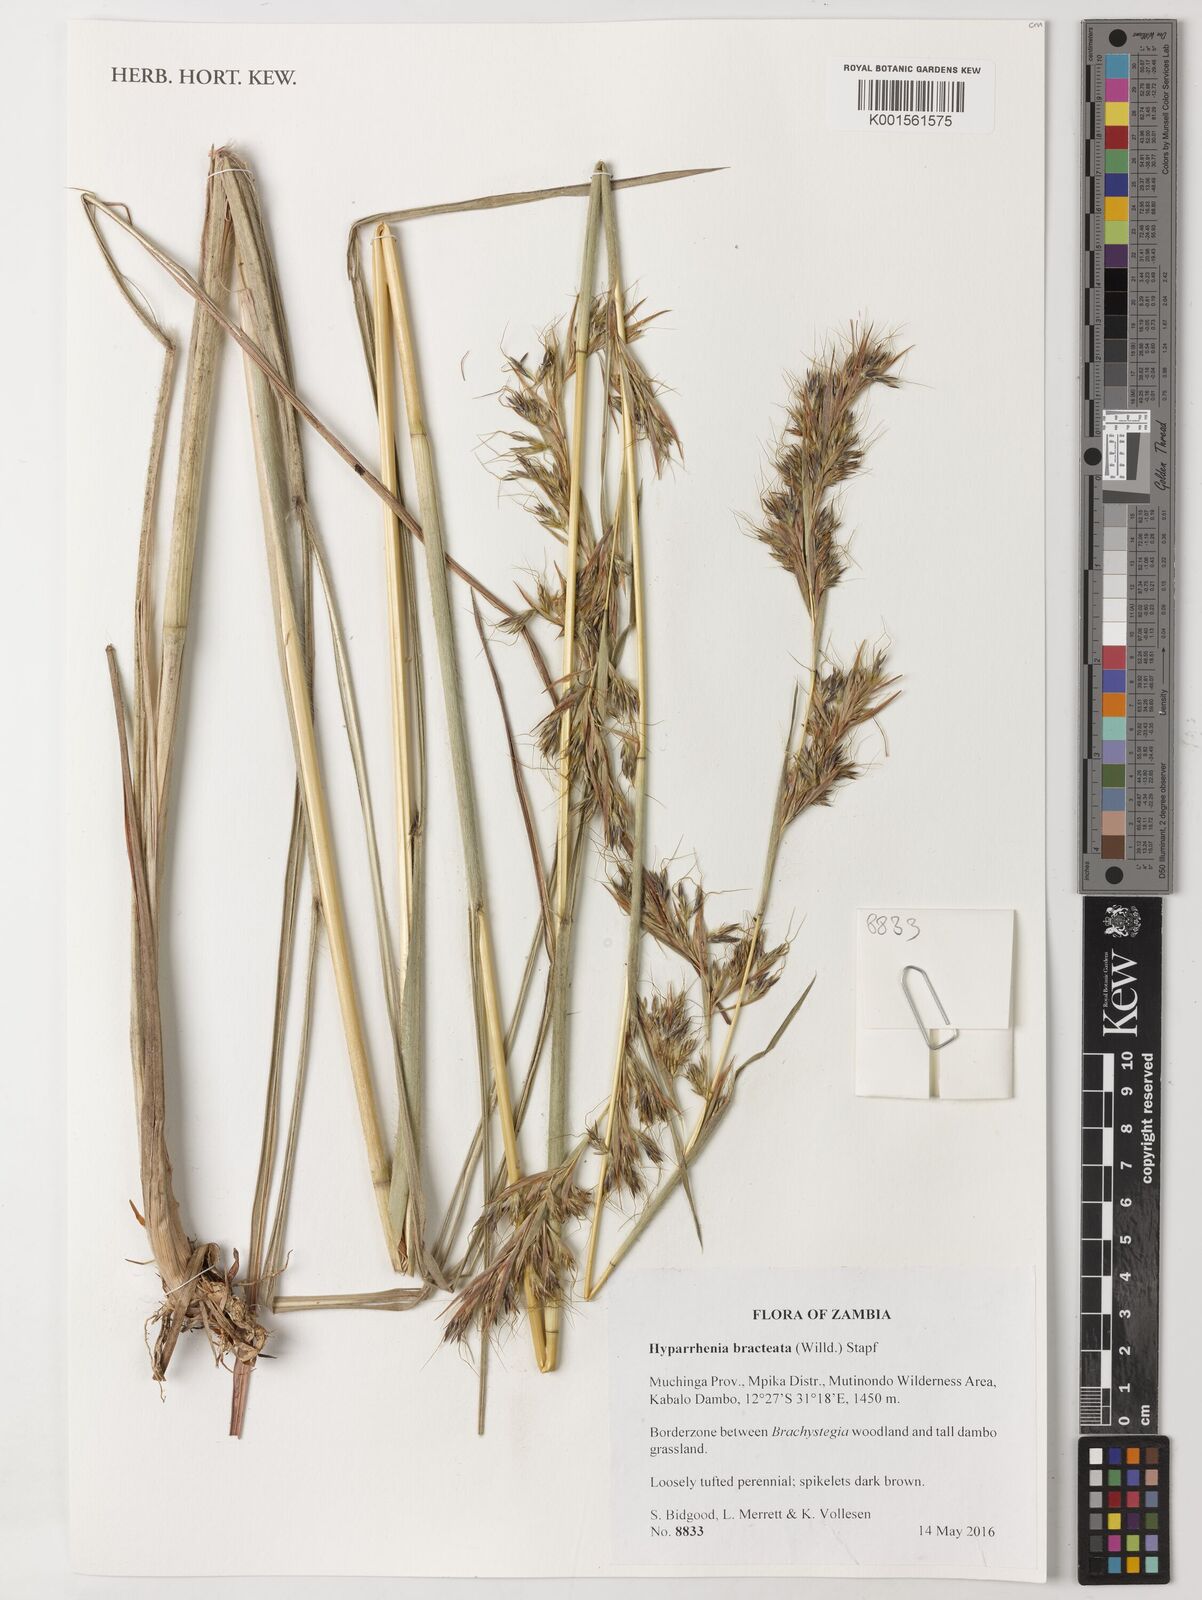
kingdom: Plantae
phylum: Tracheophyta
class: Liliopsida
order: Poales
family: Poaceae
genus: Hyparrhenia
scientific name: Hyparrhenia bracteata
